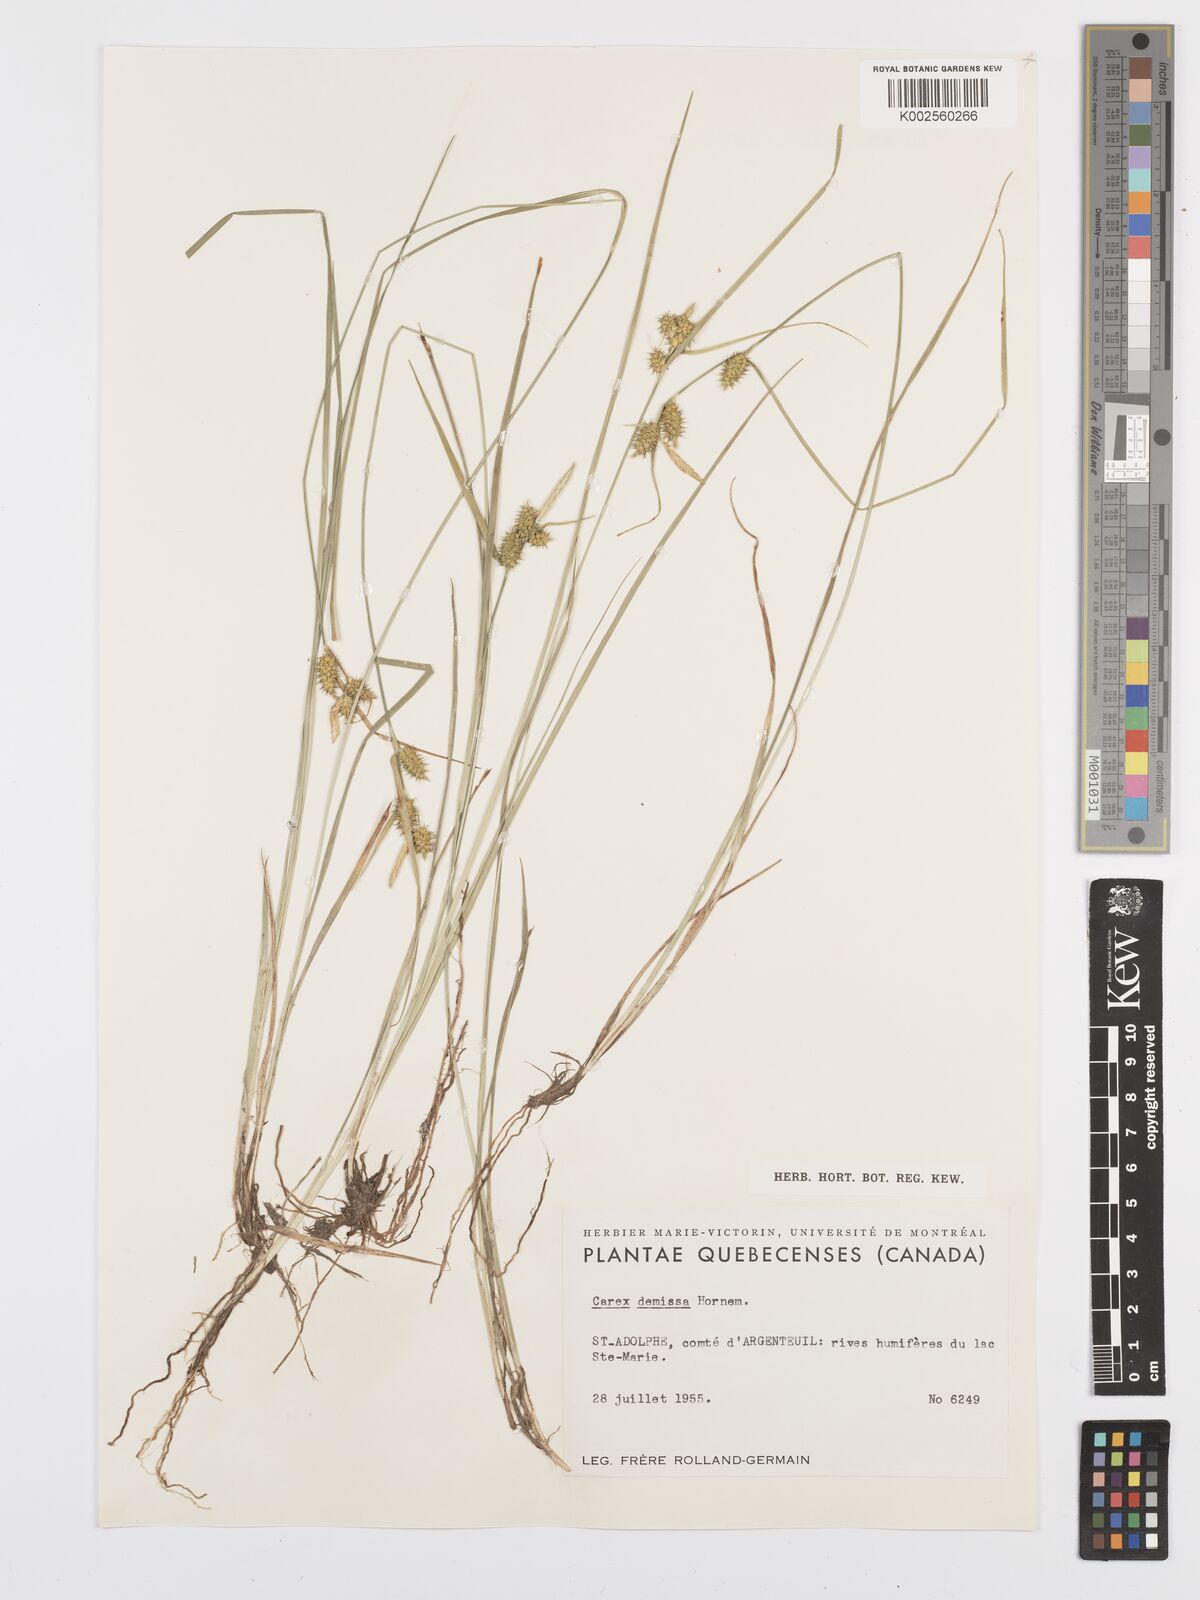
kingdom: Plantae
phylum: Tracheophyta
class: Liliopsida
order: Poales
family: Cyperaceae
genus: Carex
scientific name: Carex flava
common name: Large yellow-sedge
